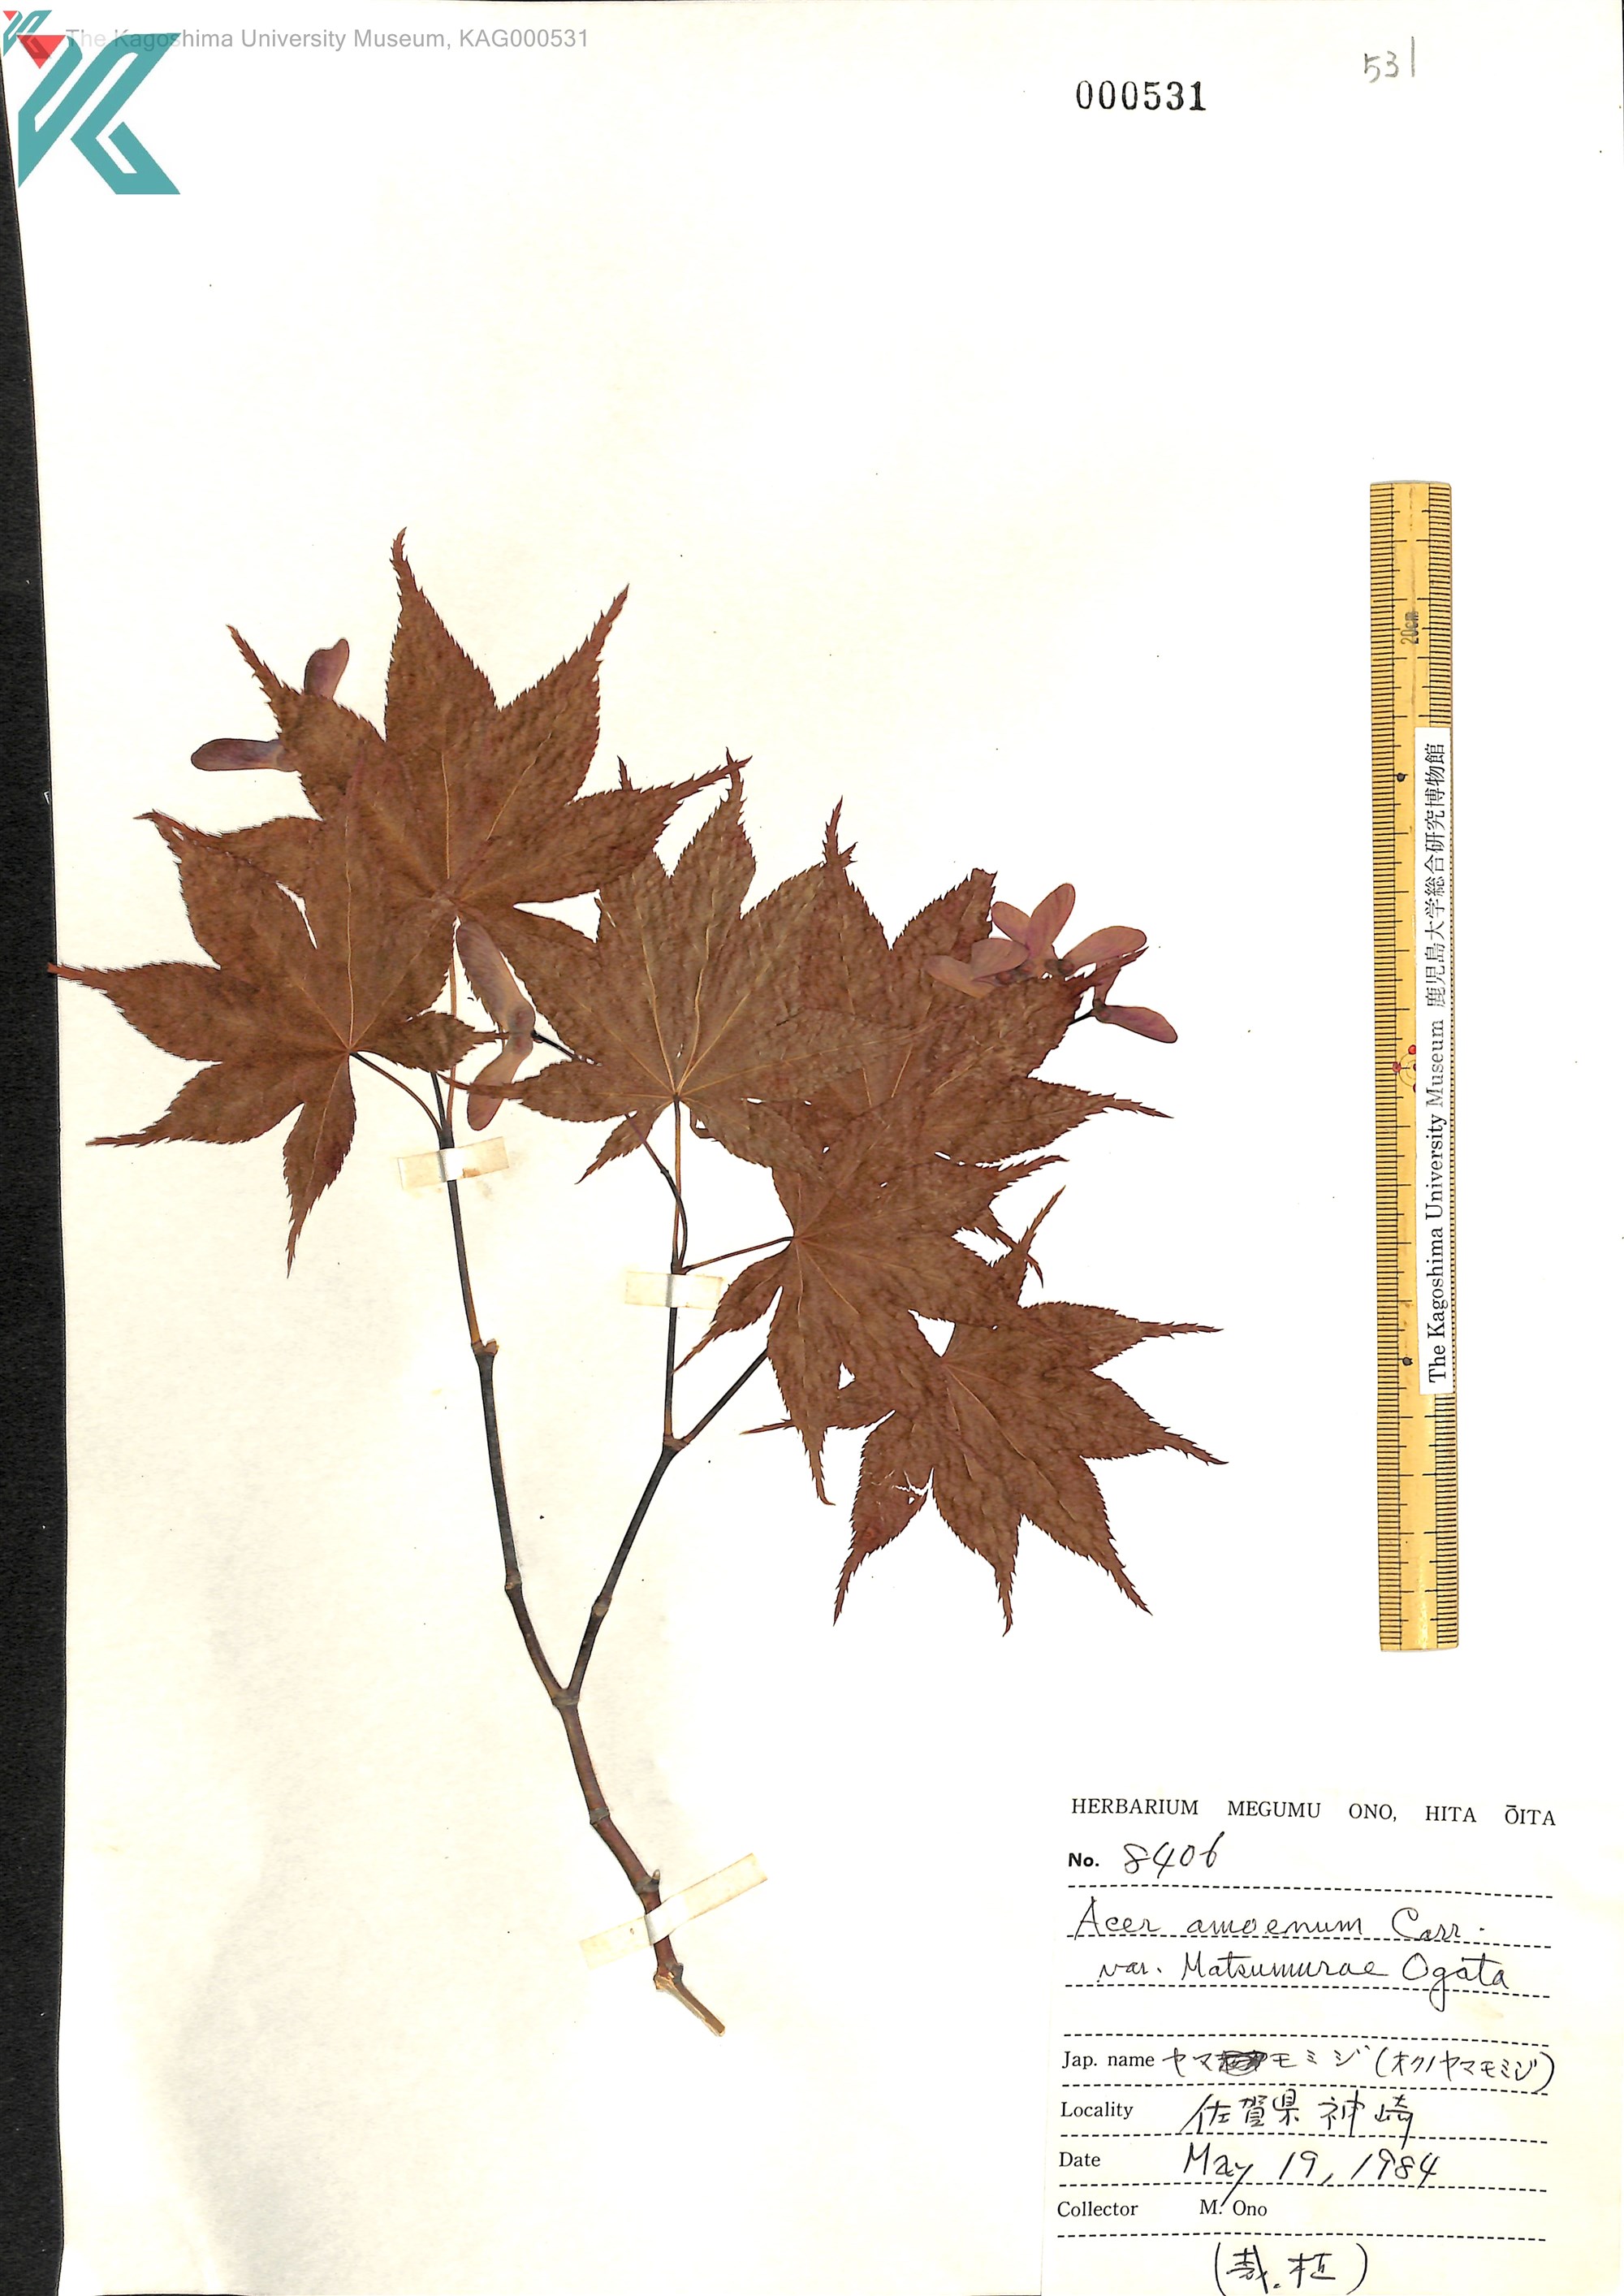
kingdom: Plantae
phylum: Tracheophyta
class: Magnoliopsida
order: Sapindales
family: Sapindaceae
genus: Acer
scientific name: Acer palmatum
